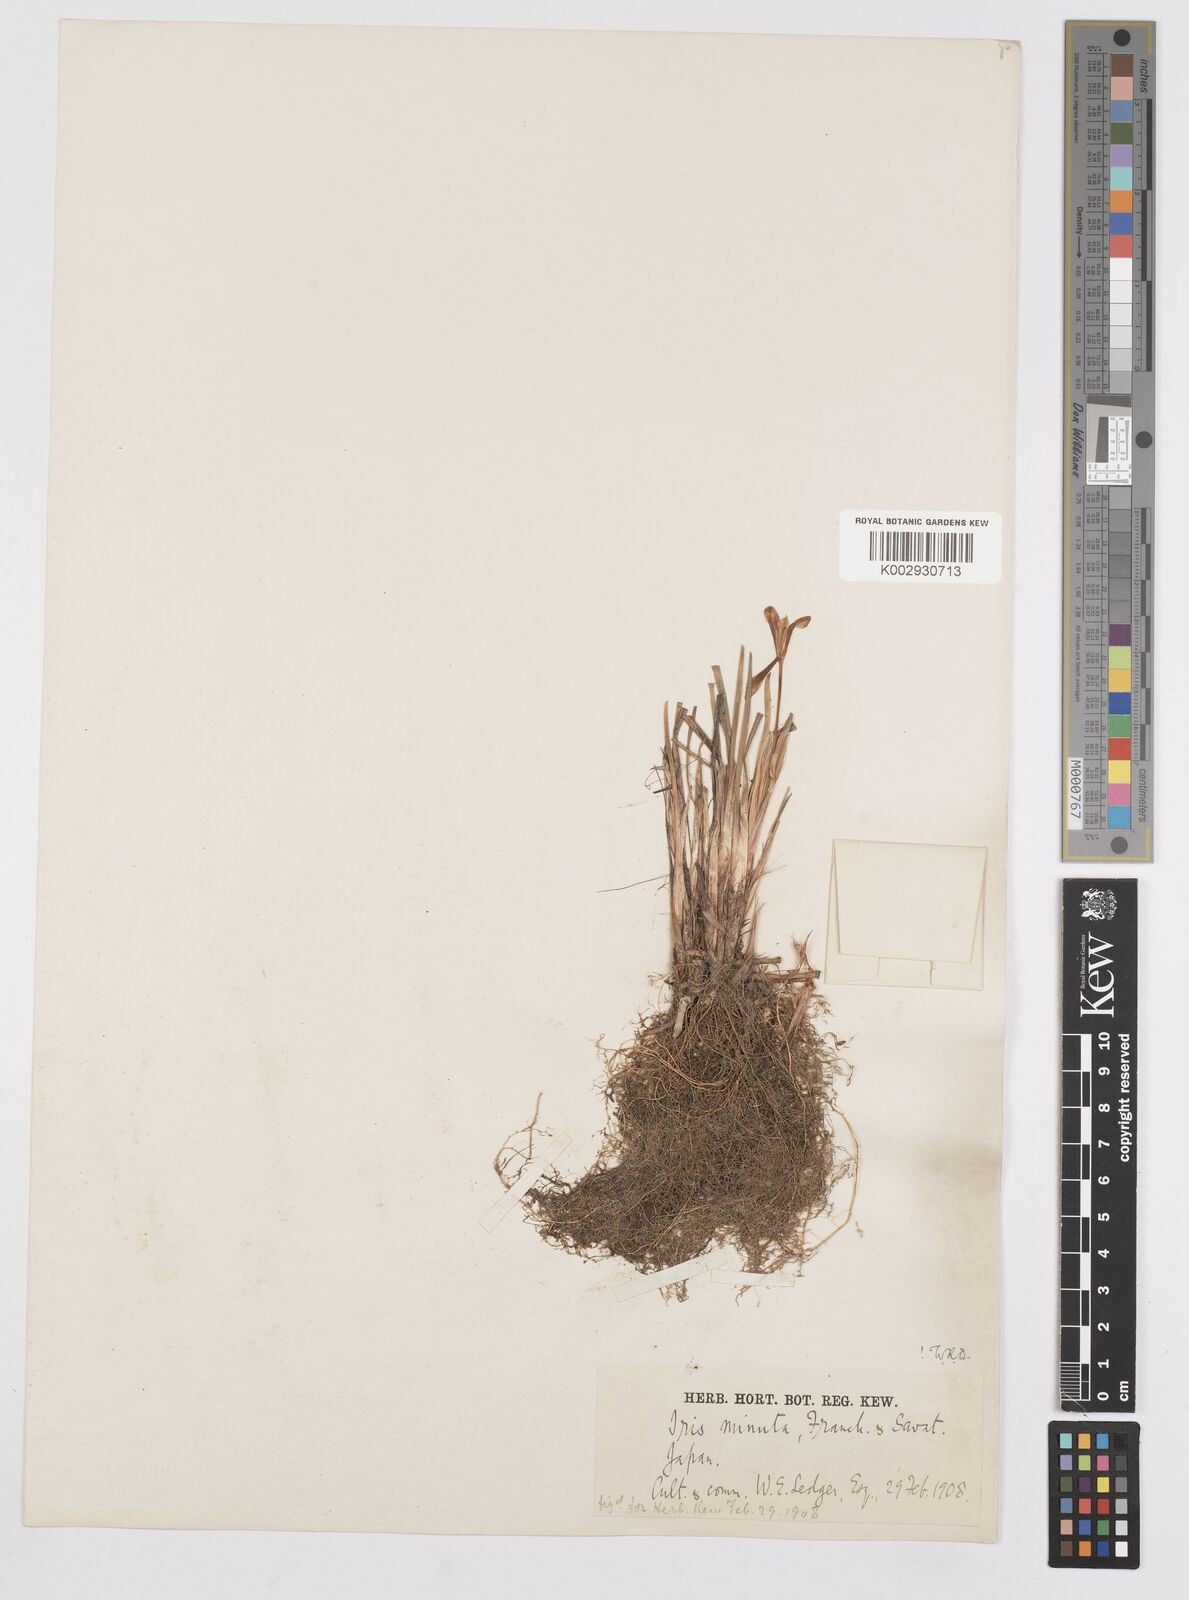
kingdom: Plantae
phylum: Tracheophyta
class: Liliopsida
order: Asparagales
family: Iridaceae
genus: Iris
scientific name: Iris minutoaurea
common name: Small yellow-flower iris
